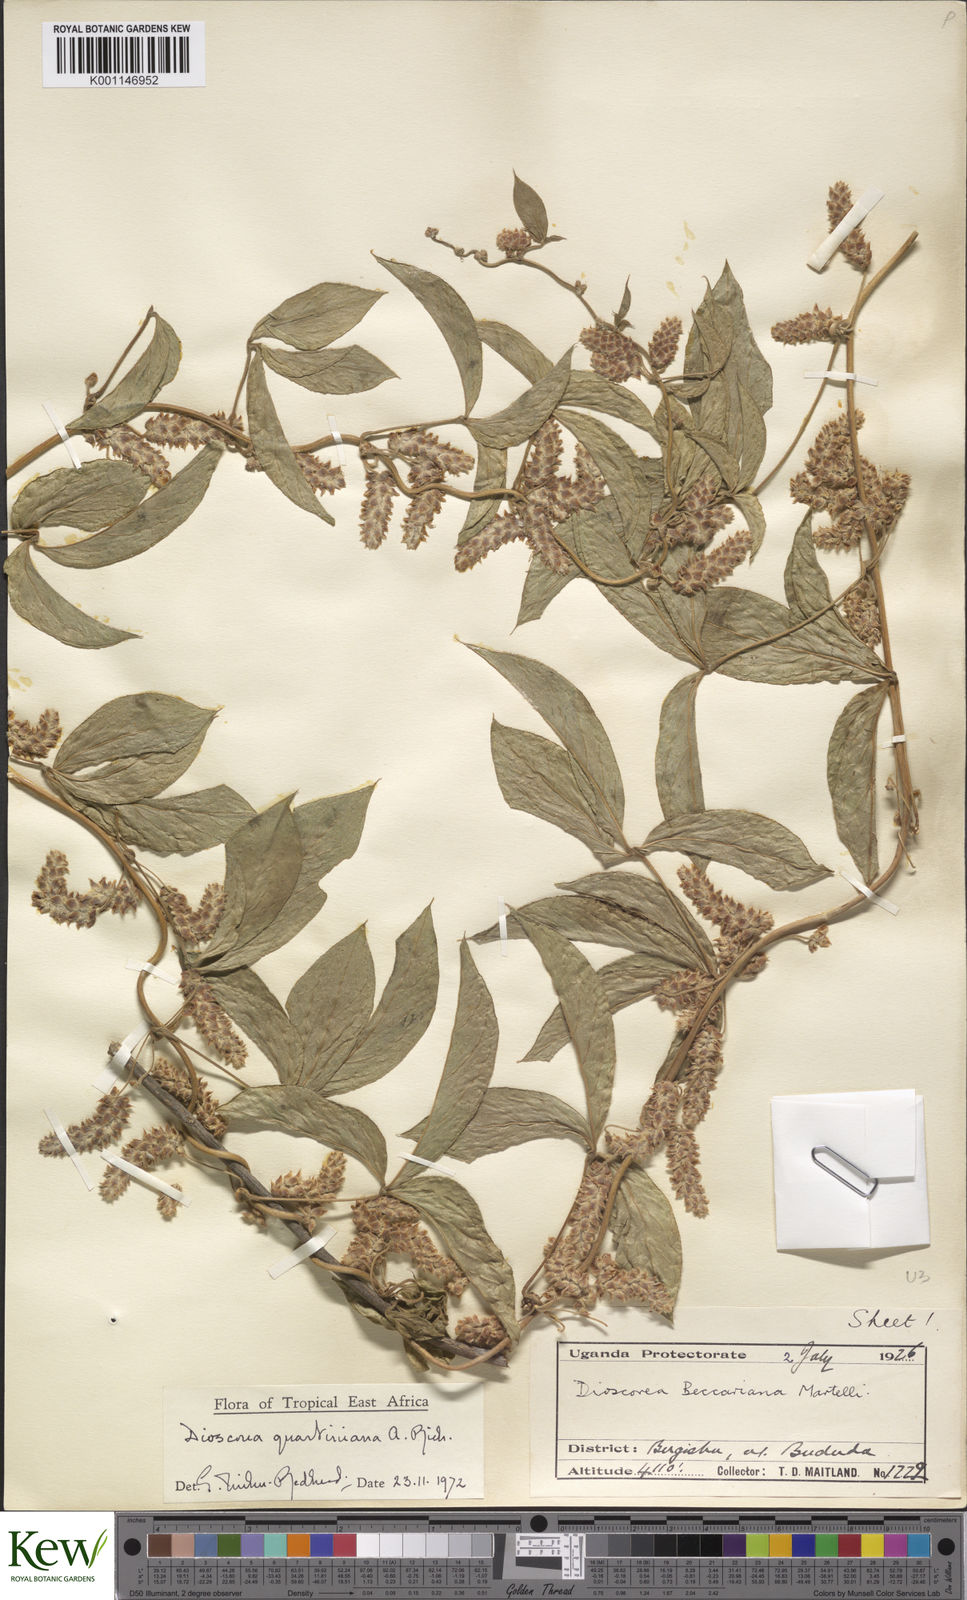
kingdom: Plantae
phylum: Tracheophyta
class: Liliopsida
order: Dioscoreales
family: Dioscoreaceae
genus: Dioscorea
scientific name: Dioscorea quartiniana
